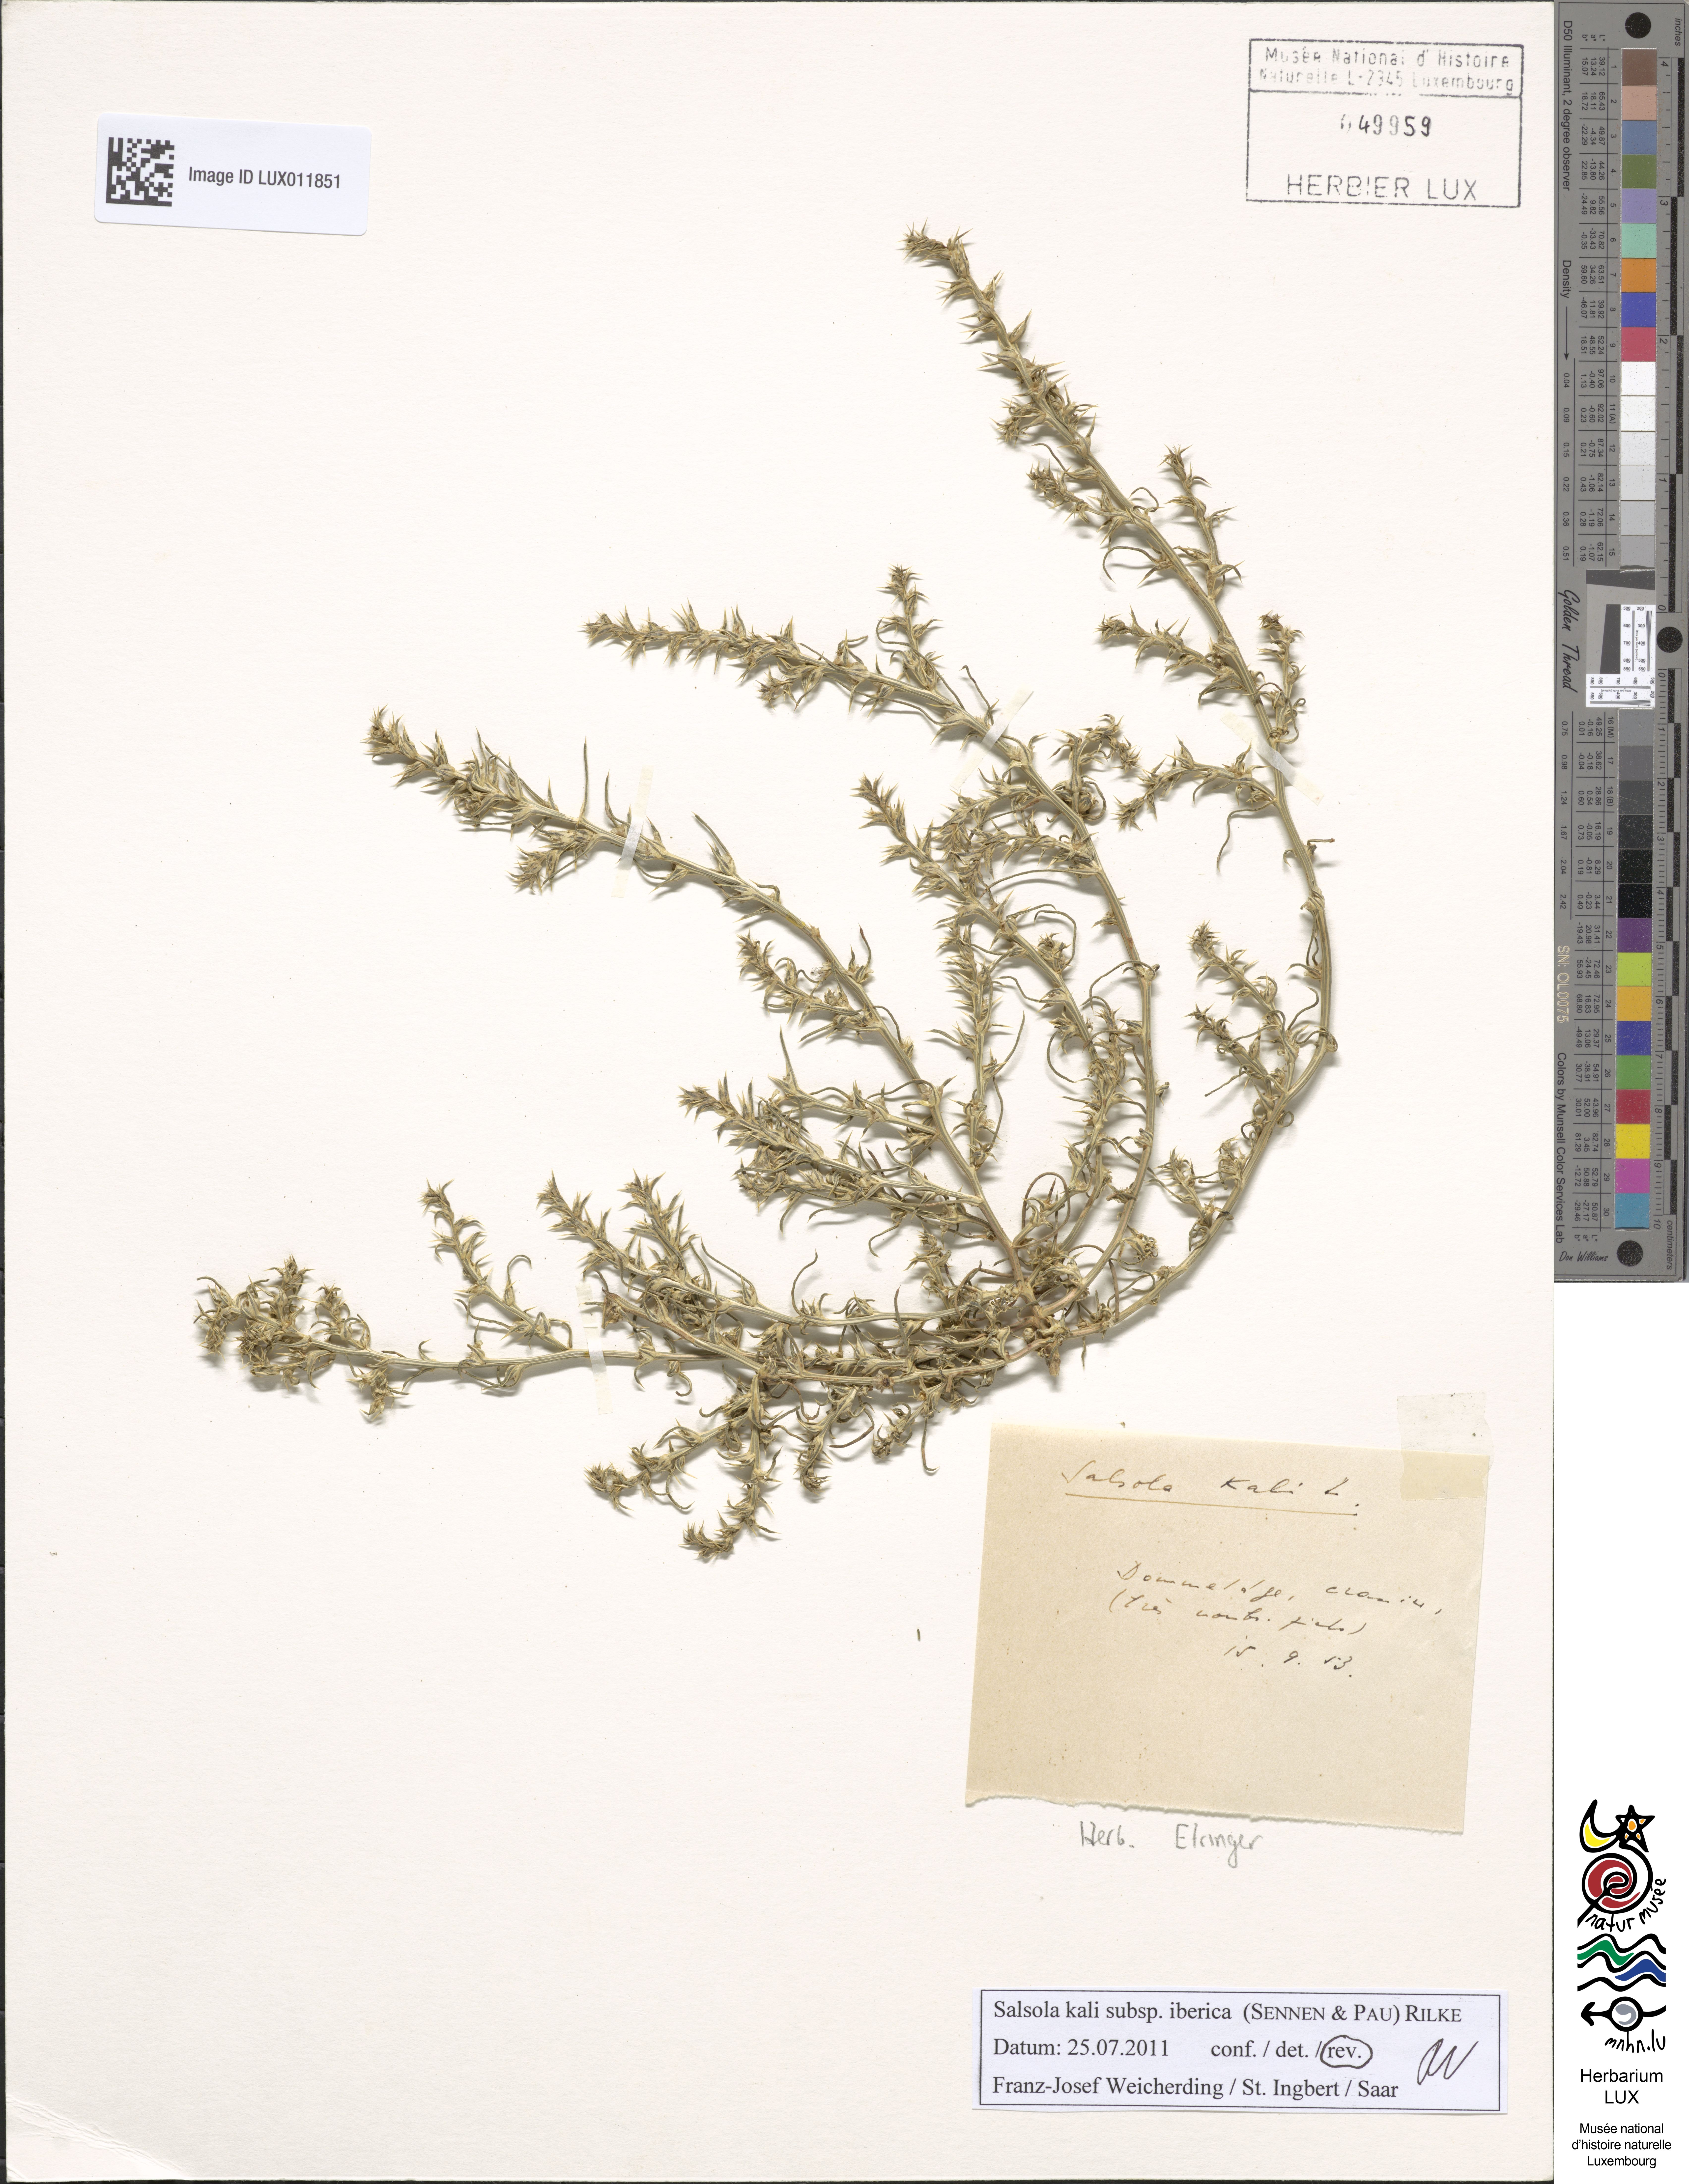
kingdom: Plantae
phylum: Tracheophyta
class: Magnoliopsida
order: Caryophyllales
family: Amaranthaceae
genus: Salsola
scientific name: Salsola kali
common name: Saltwort
